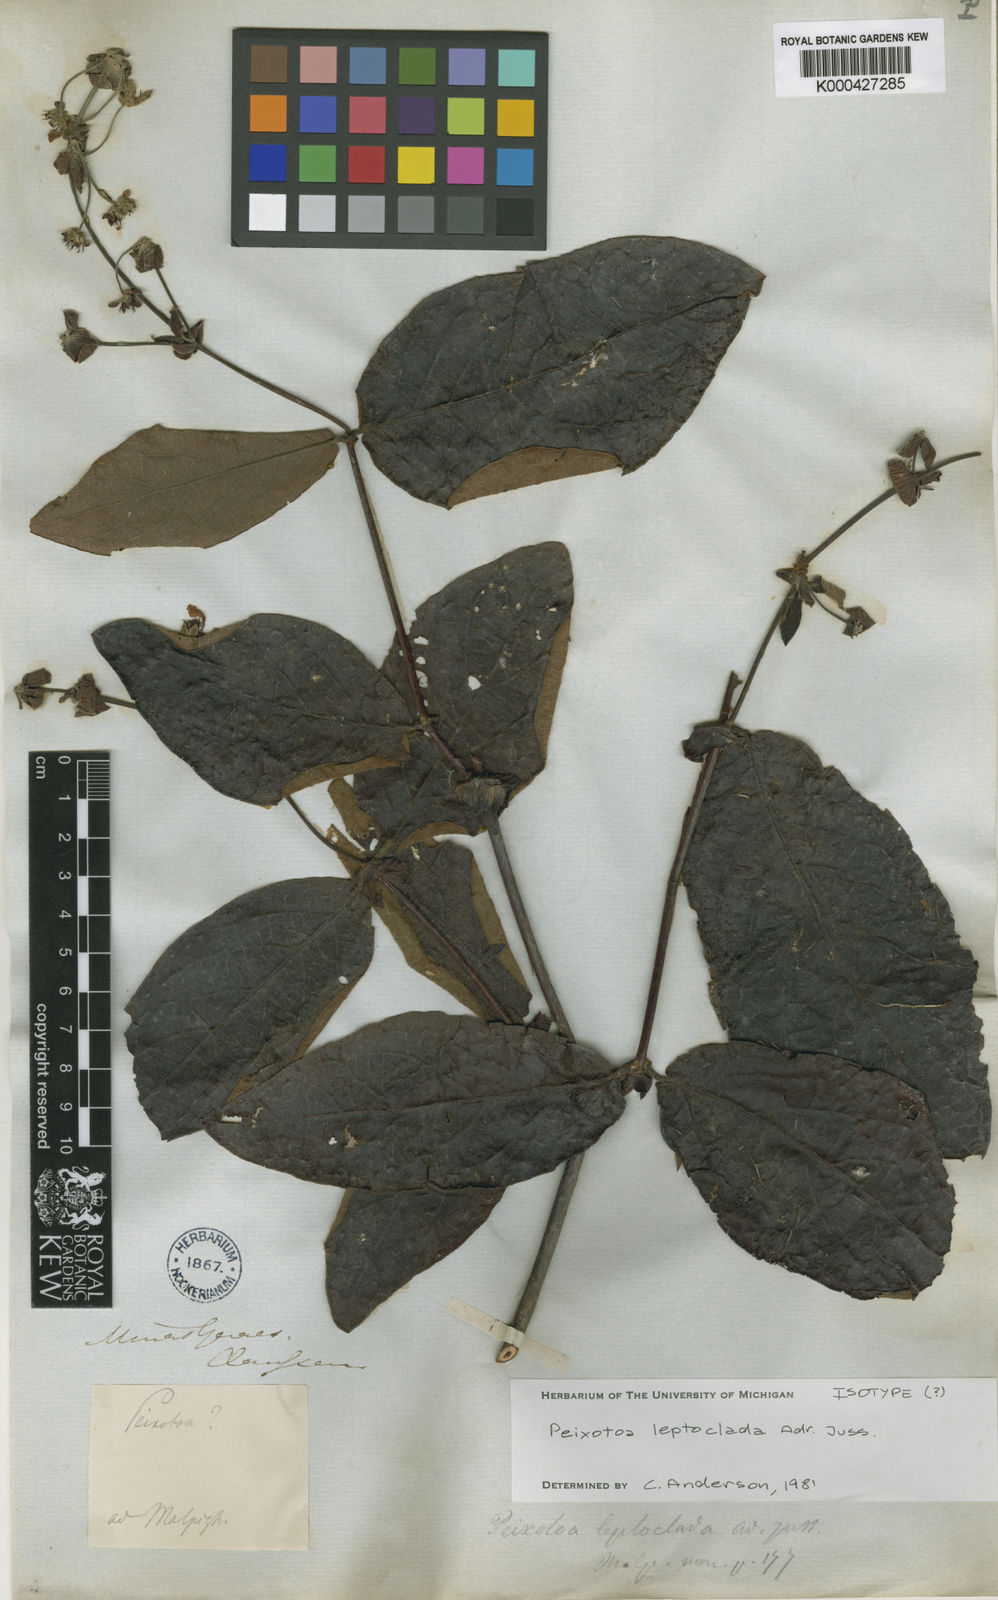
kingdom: Plantae
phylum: Tracheophyta
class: Magnoliopsida
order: Malpighiales
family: Malpighiaceae
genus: Peixotoa
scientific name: Peixotoa leptoclada
